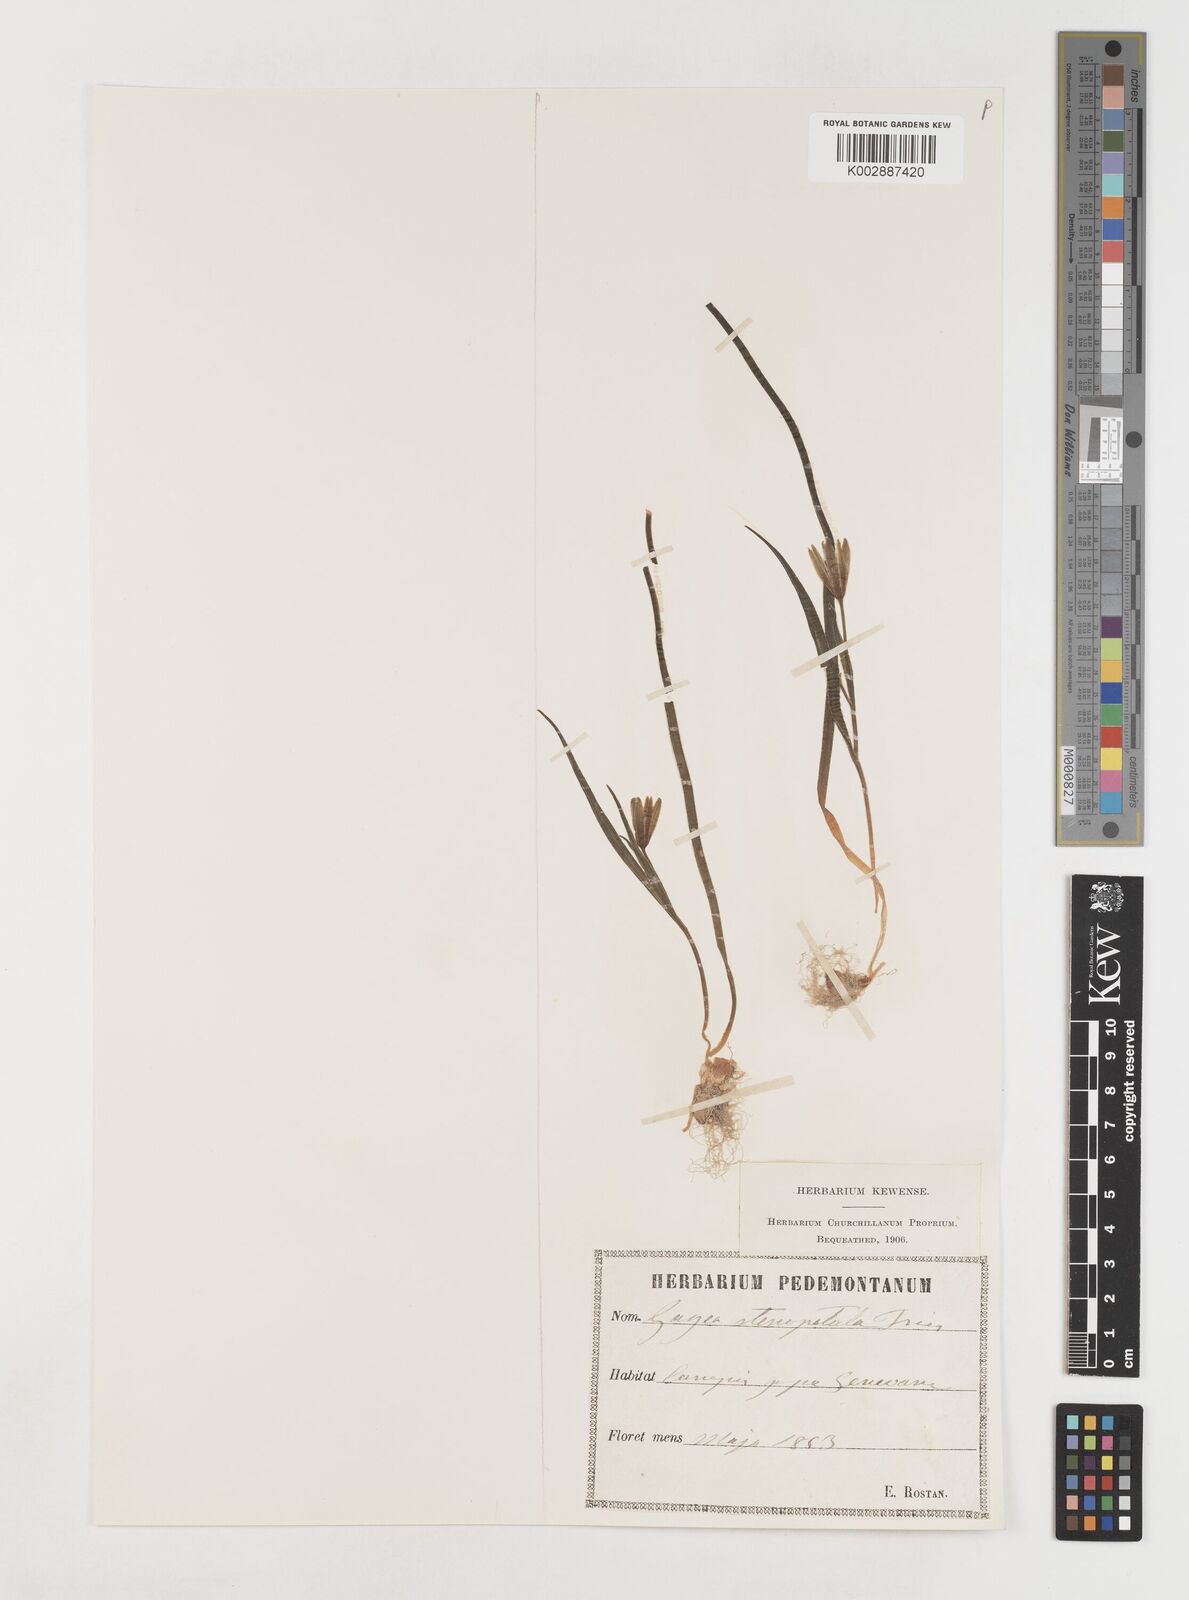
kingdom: Plantae
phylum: Tracheophyta
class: Liliopsida
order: Liliales
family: Liliaceae
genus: Gagea
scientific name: Gagea pratensis
